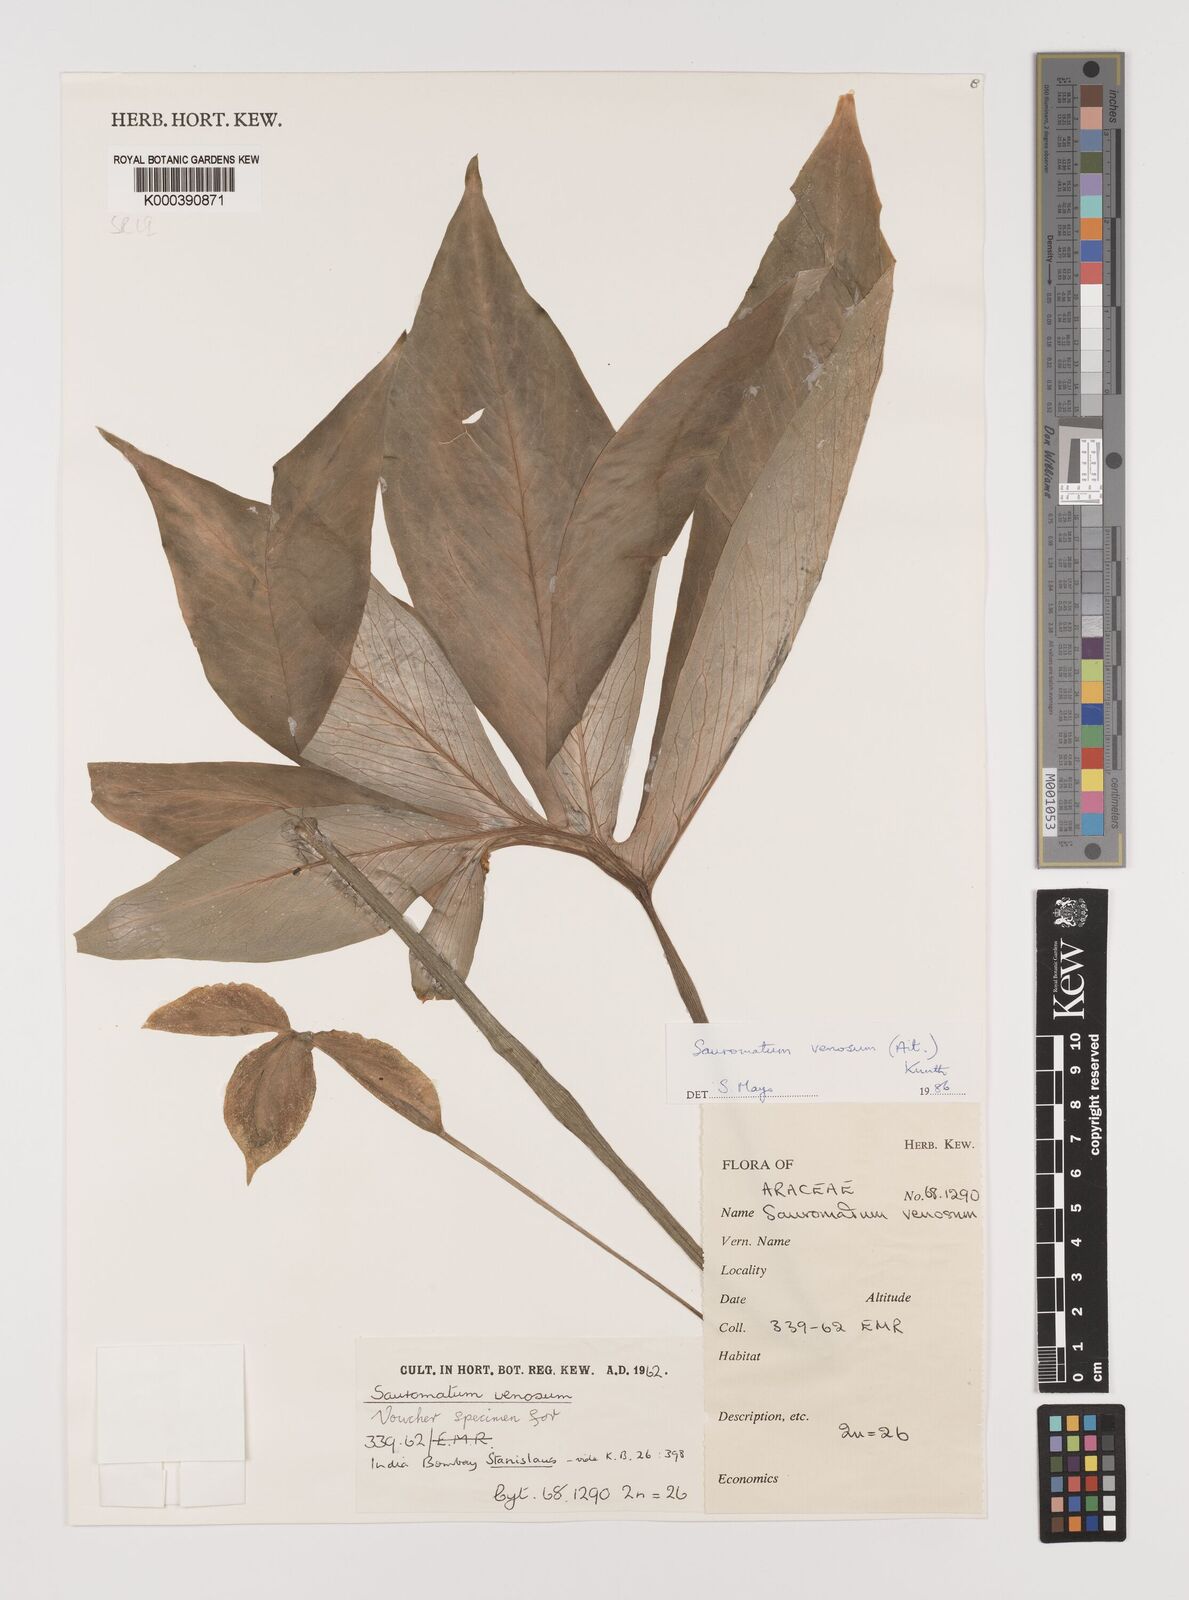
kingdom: Plantae
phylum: Tracheophyta
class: Liliopsida
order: Alismatales
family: Araceae
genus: Sauromatum
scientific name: Sauromatum venosum
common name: Voodoo lily
